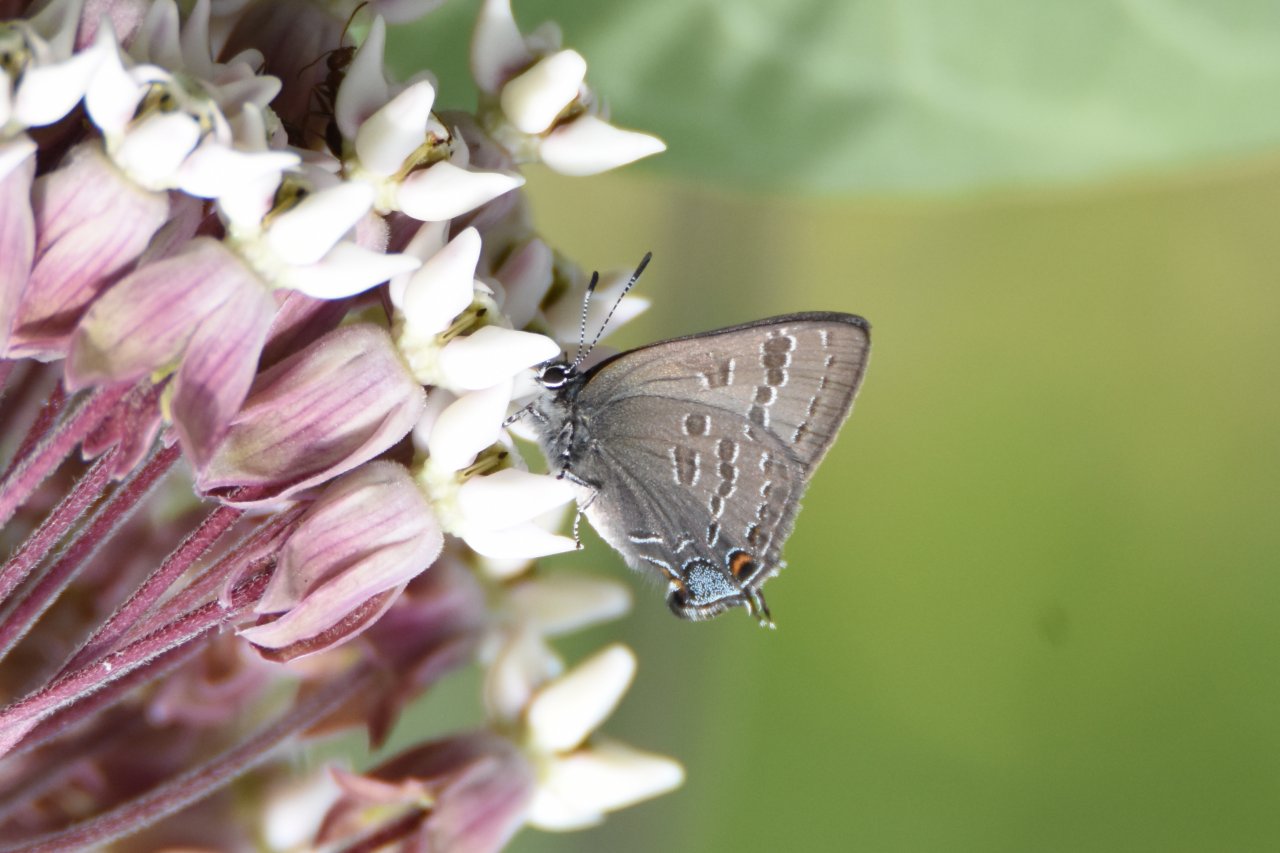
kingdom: Animalia
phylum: Arthropoda
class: Insecta
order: Lepidoptera
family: Lycaenidae
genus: Strymon
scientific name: Strymon caryaevorus
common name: Hickory Hairstreak
